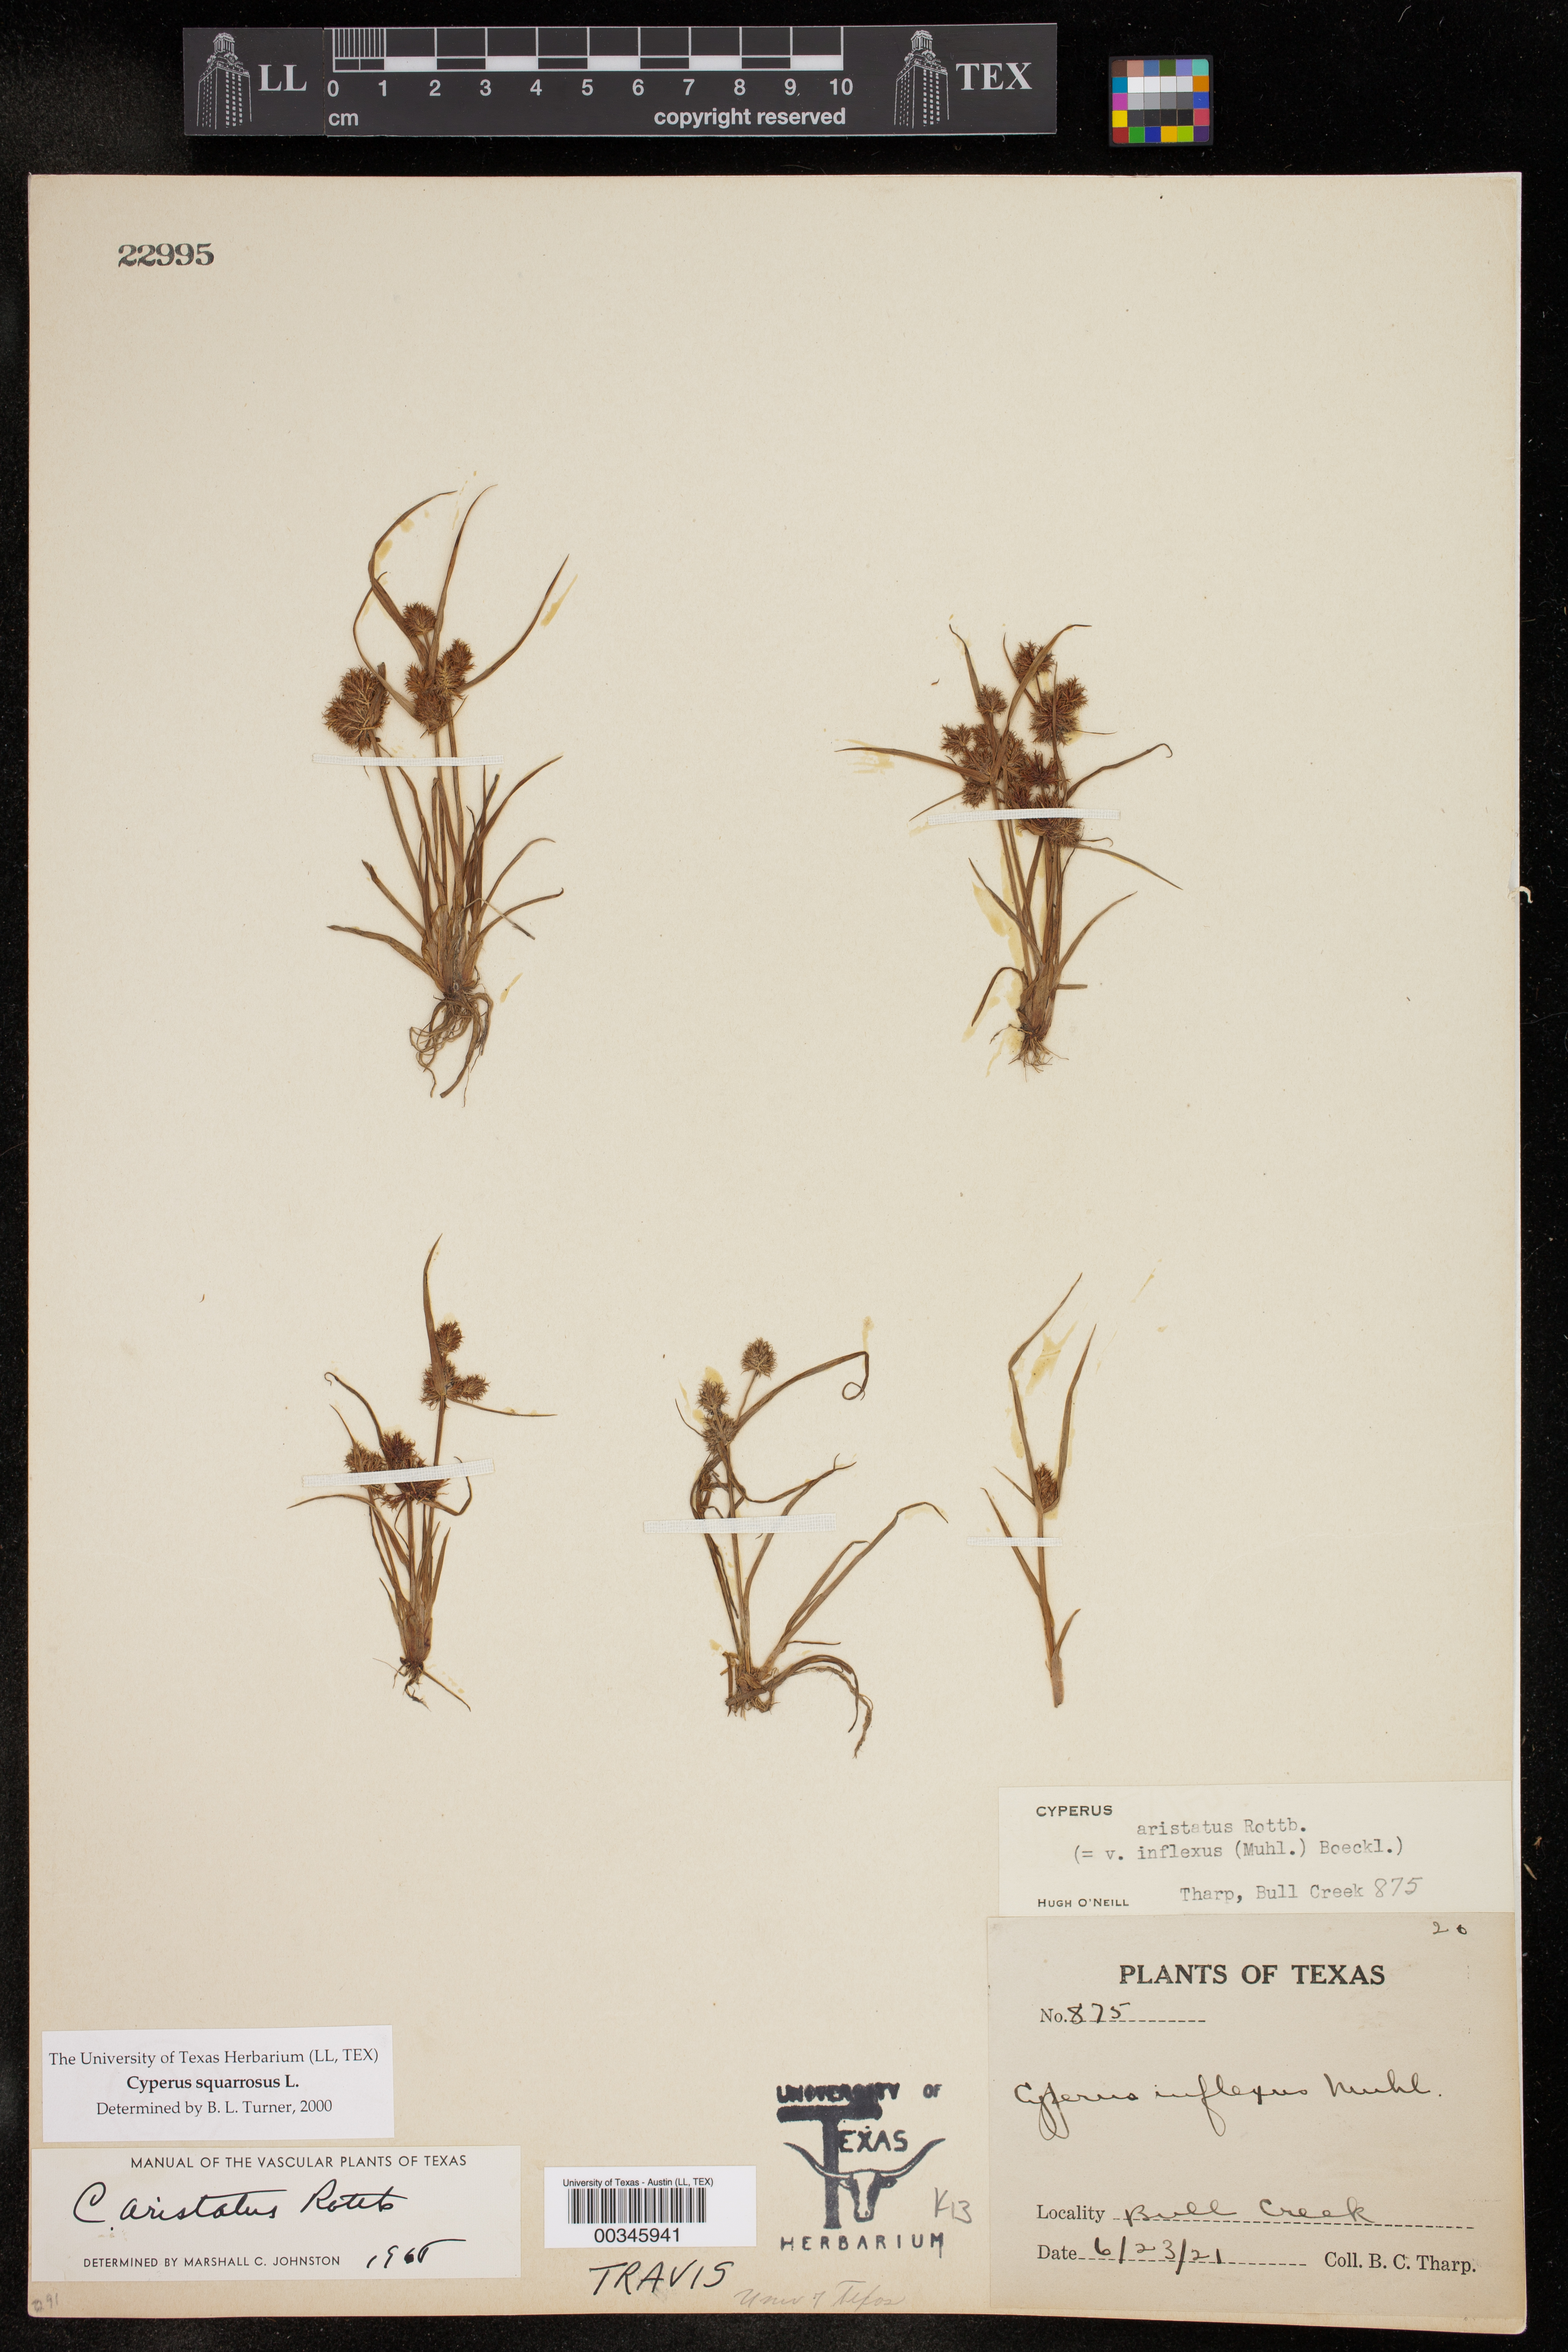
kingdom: Plantae
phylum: Tracheophyta
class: Liliopsida
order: Poales
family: Cyperaceae
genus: Cyperus
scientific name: Cyperus squarrosus
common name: Awned cyperus
